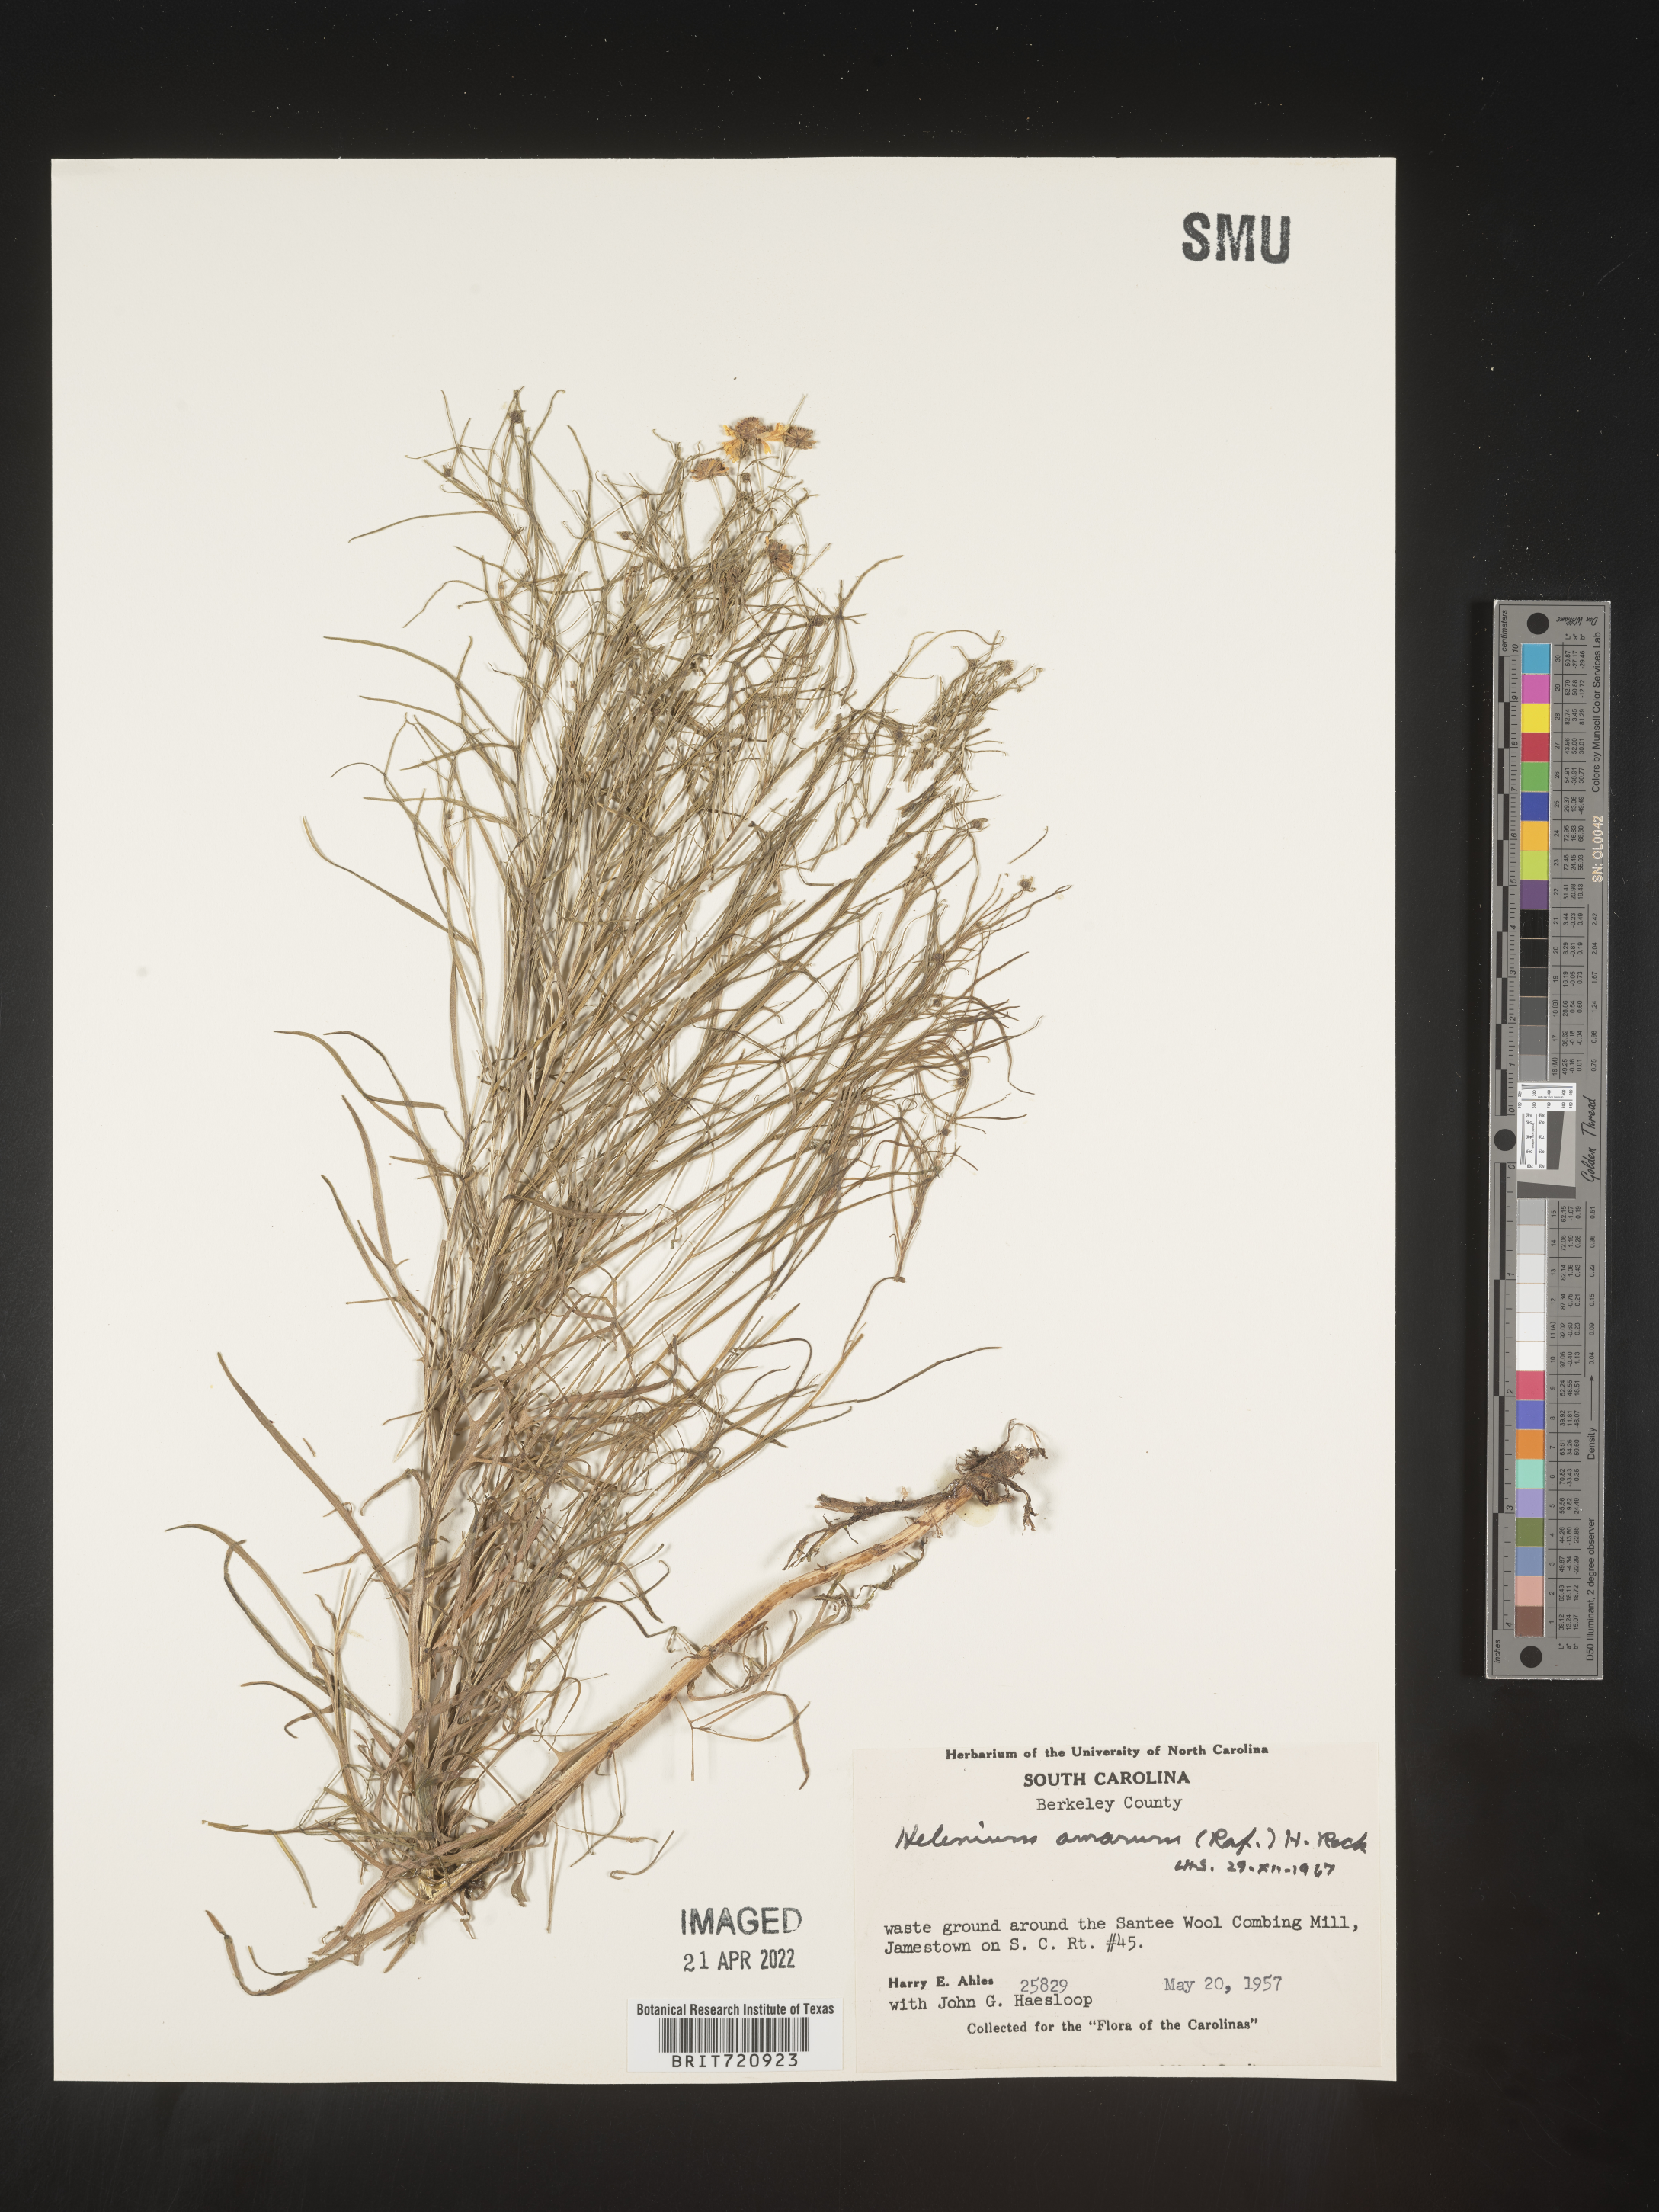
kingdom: Plantae
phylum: Tracheophyta
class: Magnoliopsida
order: Asterales
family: Asteraceae
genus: Helenium
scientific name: Helenium amarum
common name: Bitter sneezeweed
